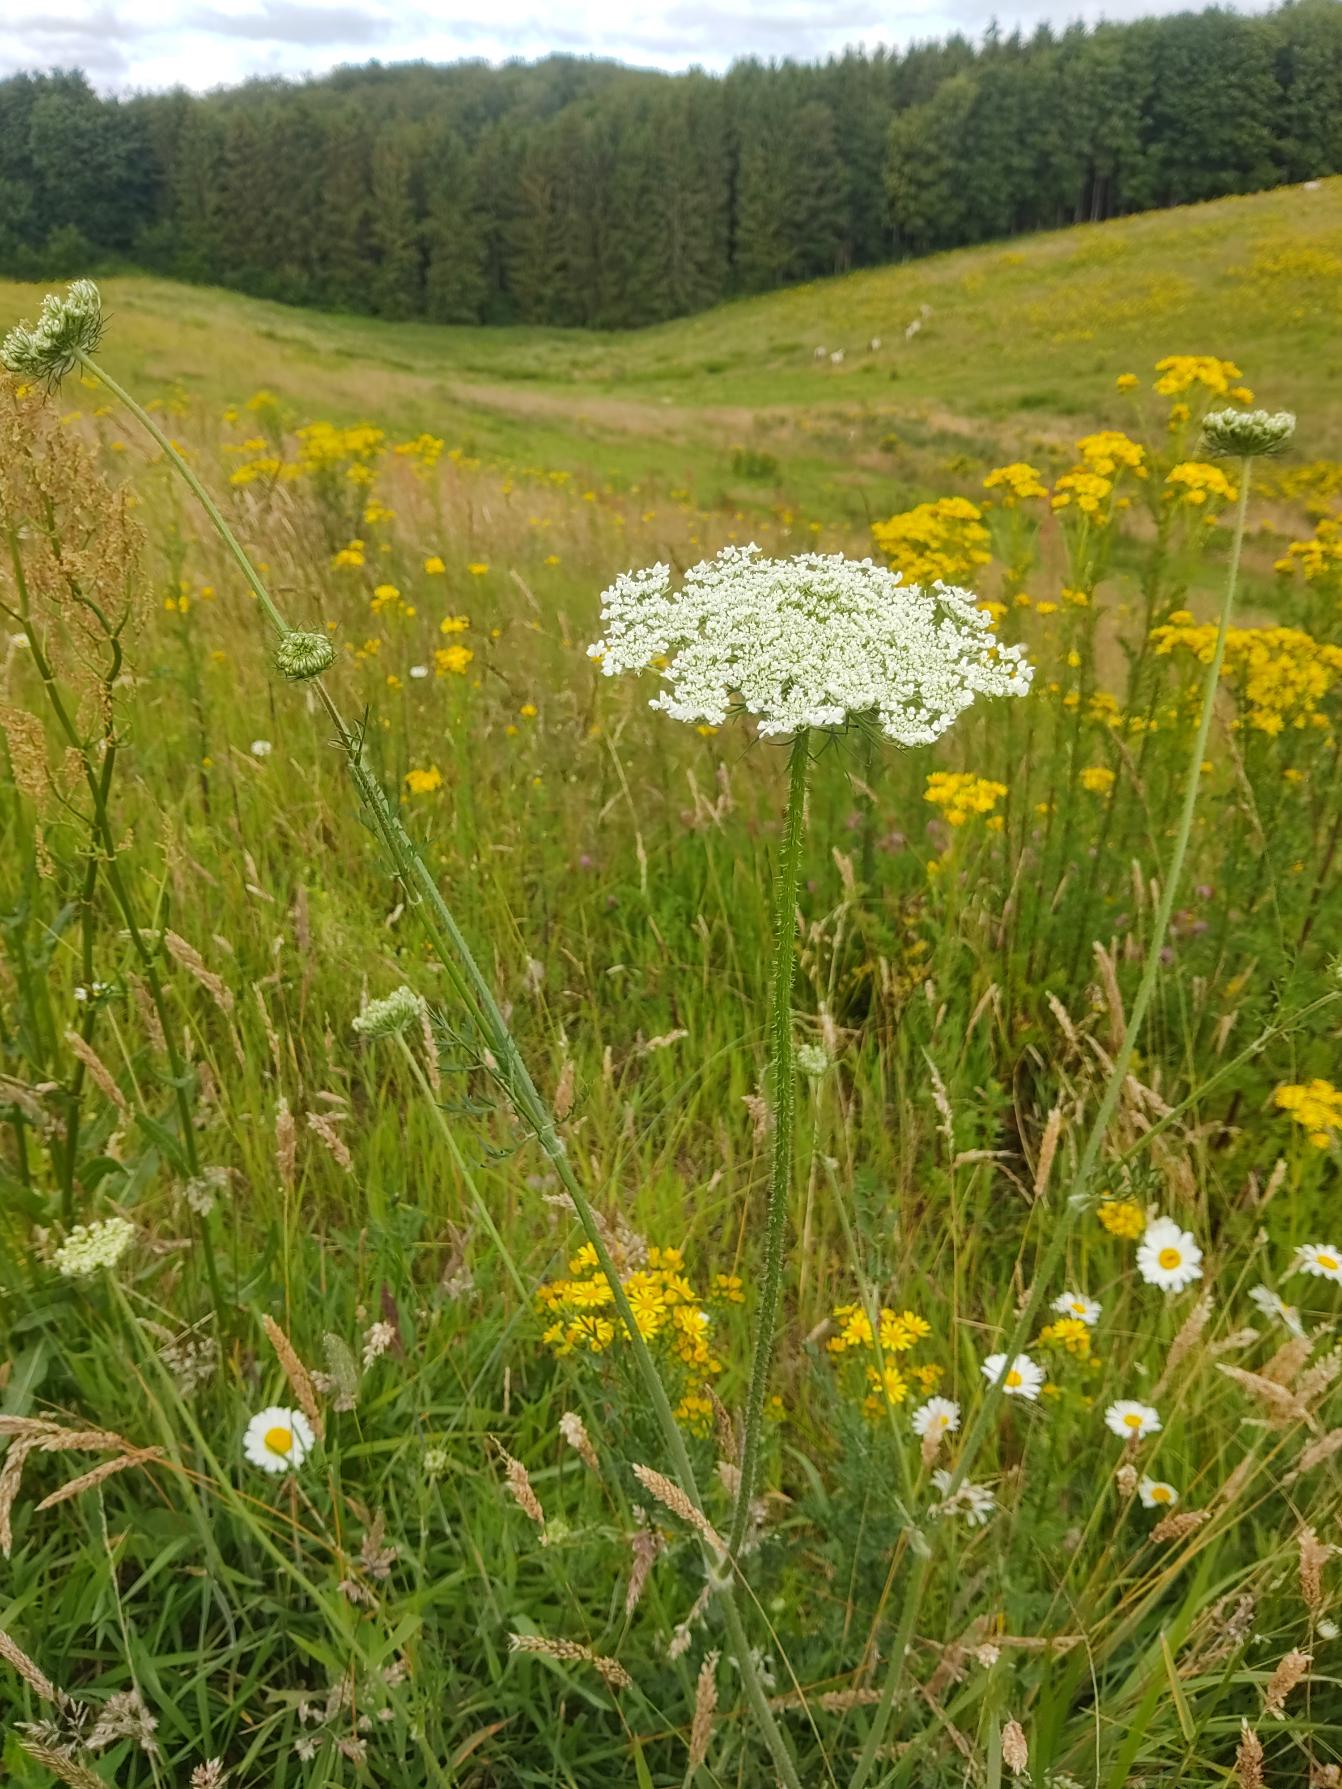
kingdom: Plantae
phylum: Tracheophyta
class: Magnoliopsida
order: Apiales
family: Apiaceae
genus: Daucus
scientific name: Daucus carota
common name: Gulerod
